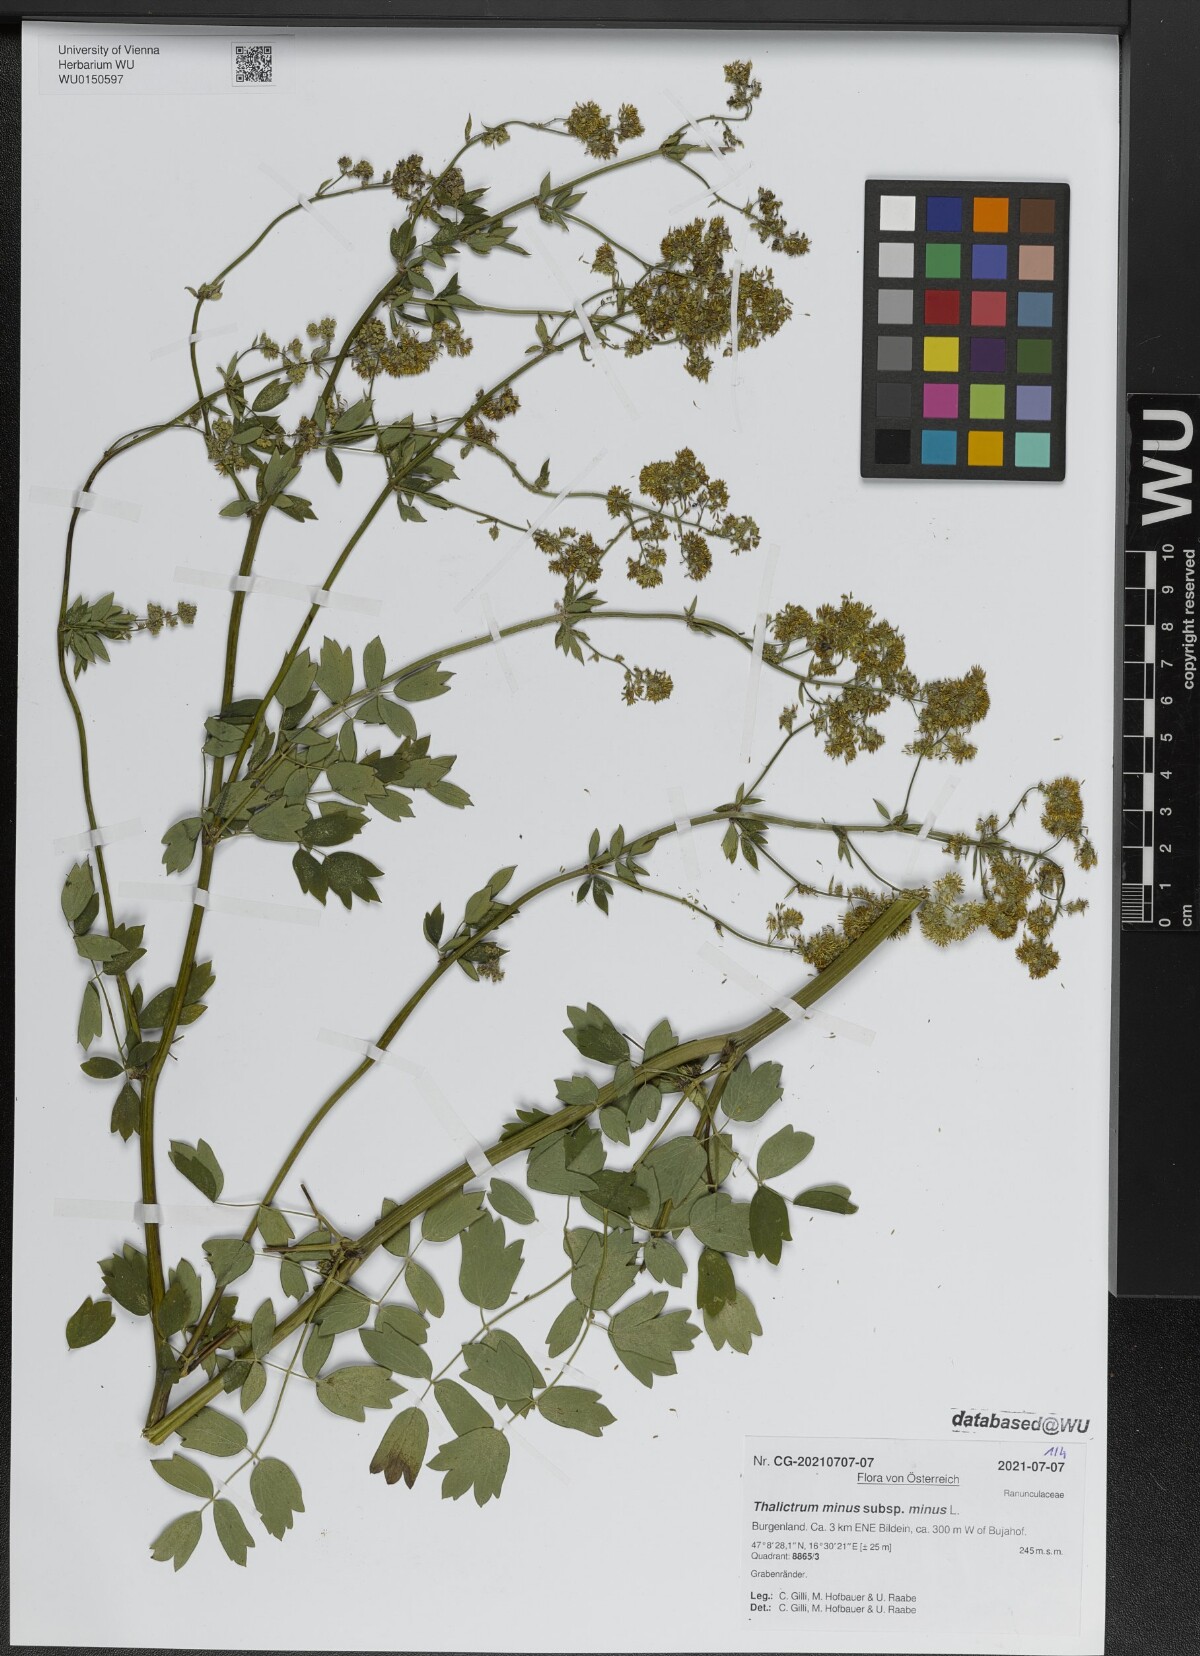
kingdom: Plantae
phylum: Tracheophyta
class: Magnoliopsida
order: Ranunculales
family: Ranunculaceae
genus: Thalictrum
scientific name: Thalictrum minus
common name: Lesser meadow-rue
